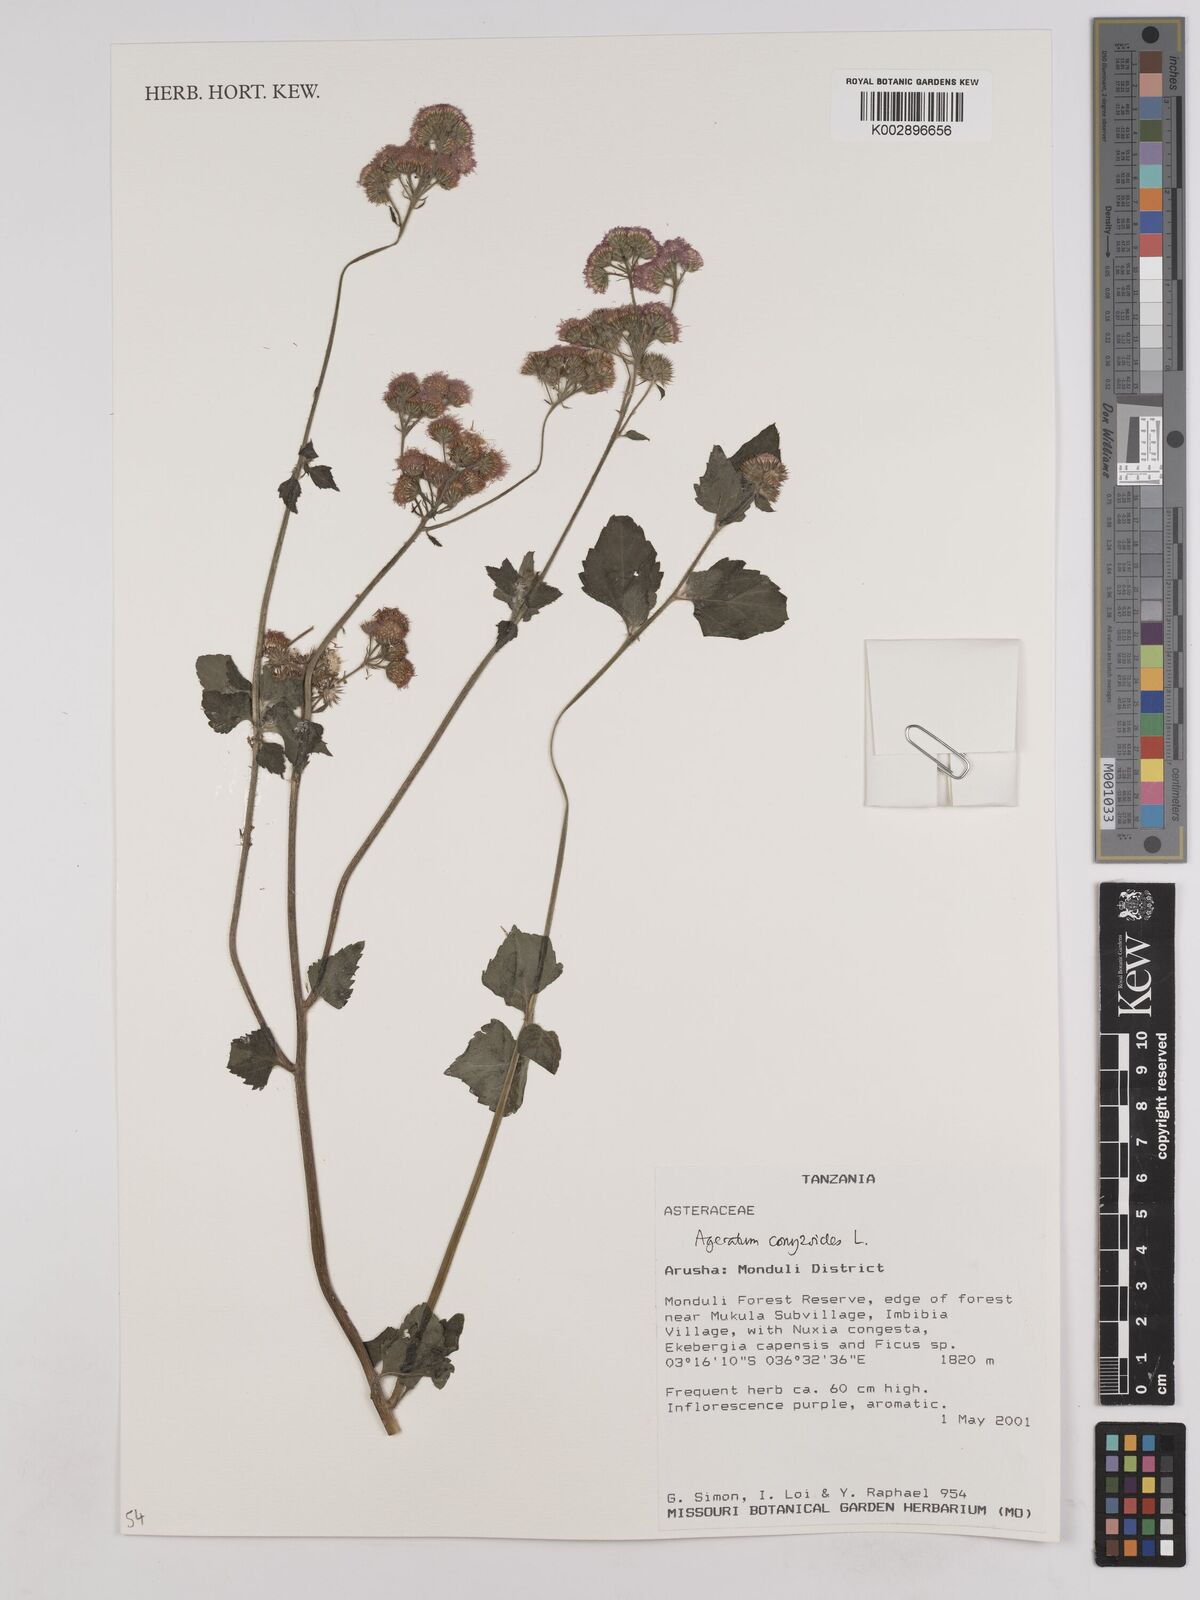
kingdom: Plantae
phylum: Tracheophyta
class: Magnoliopsida
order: Asterales
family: Asteraceae
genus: Ageratum
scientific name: Ageratum conyzoides
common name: Tropical whiteweed
